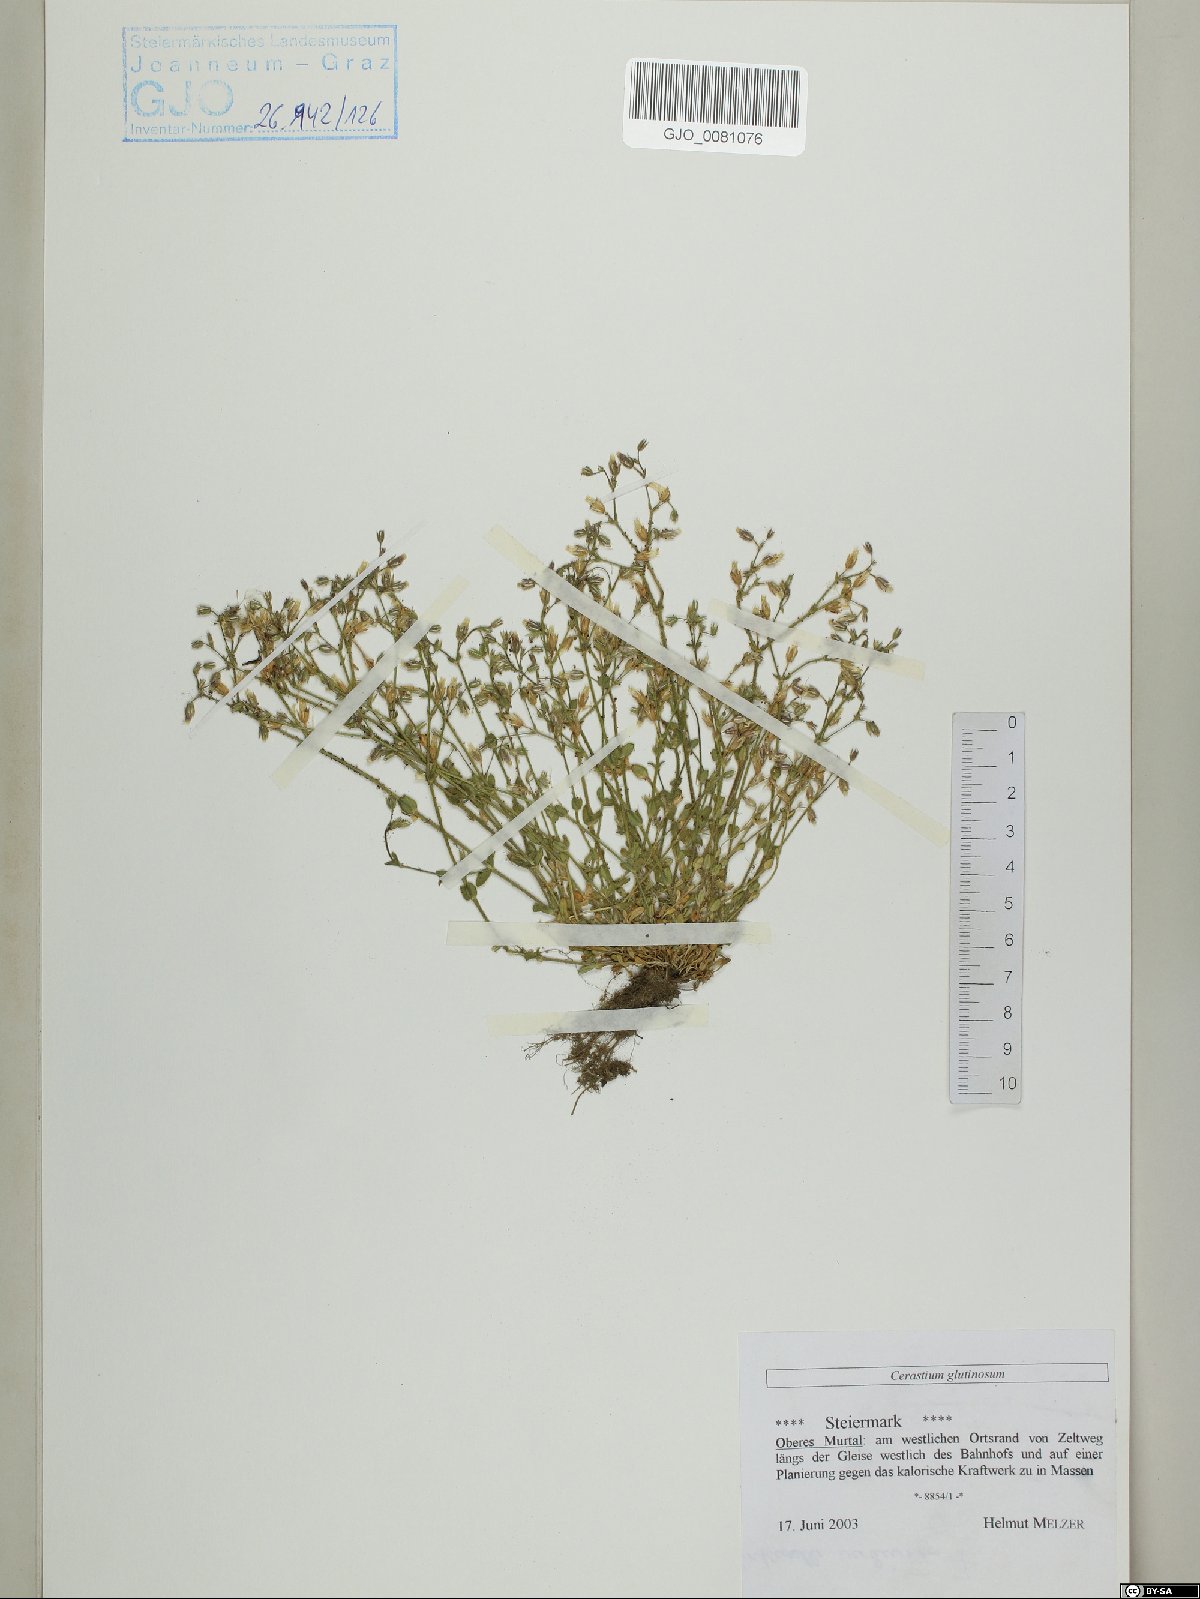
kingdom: Plantae
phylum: Tracheophyta
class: Magnoliopsida
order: Caryophyllales
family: Caryophyllaceae
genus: Cerastium
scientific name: Cerastium glutinosum
